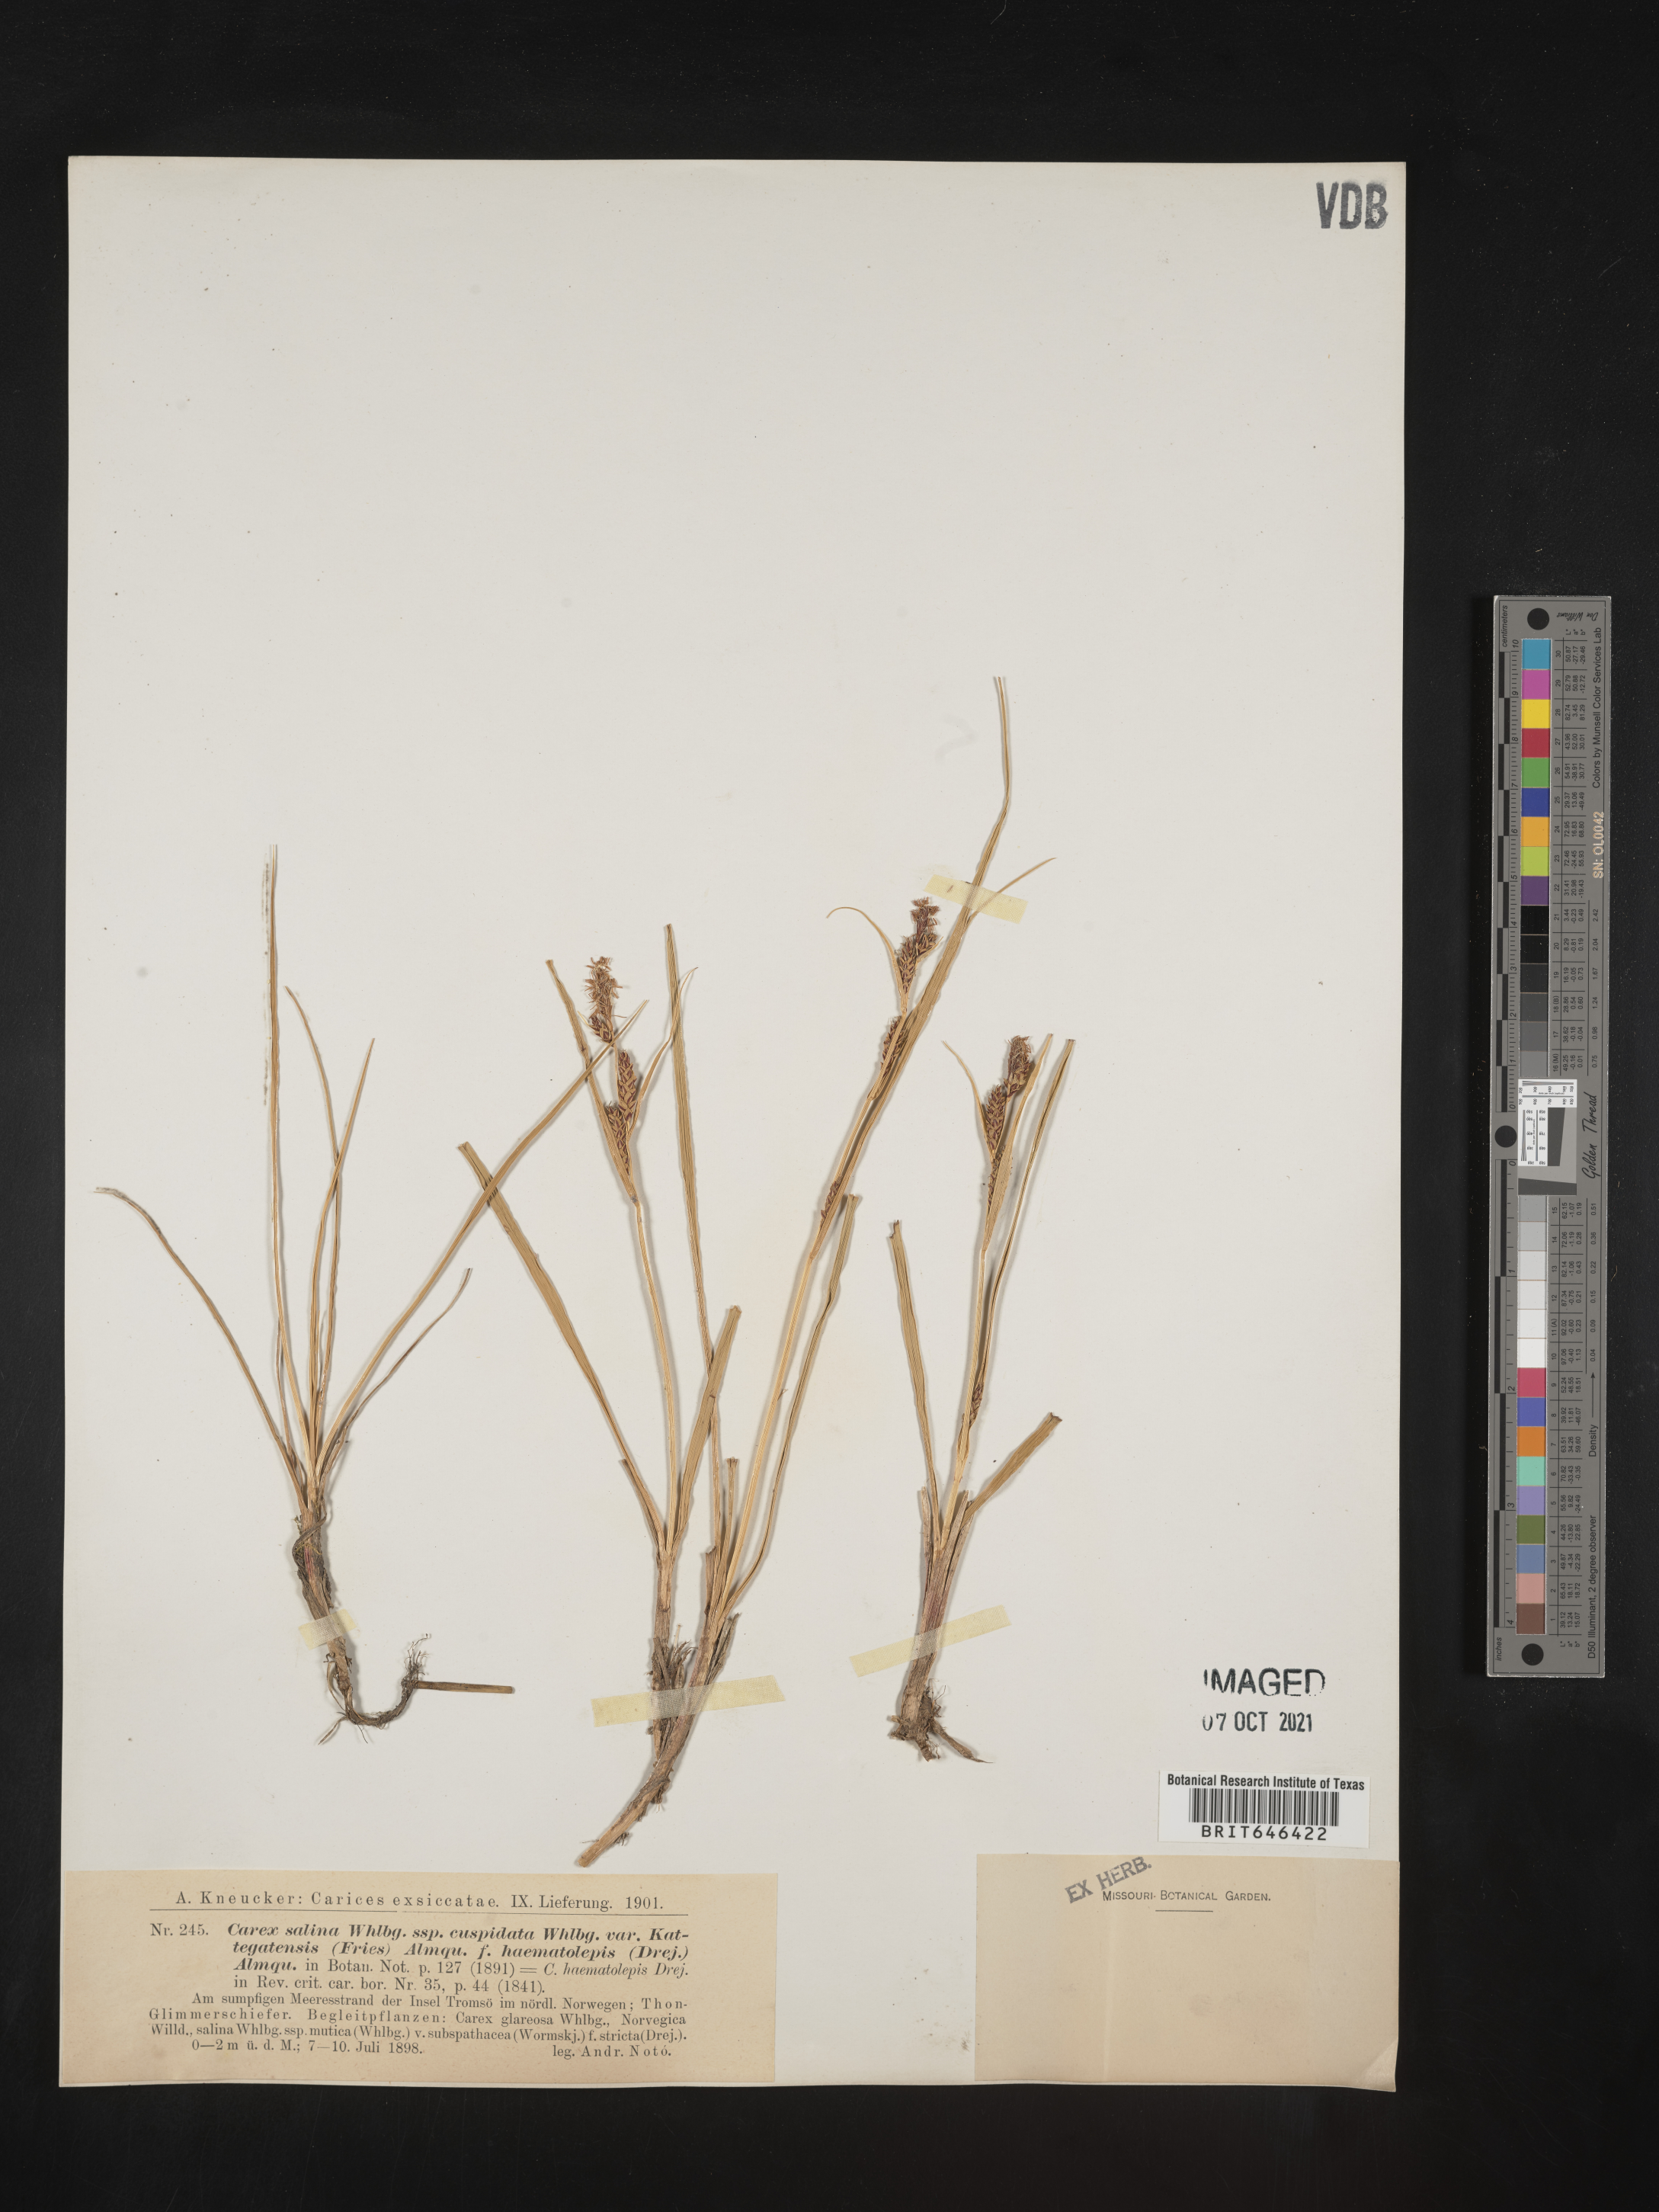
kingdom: Plantae
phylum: Tracheophyta
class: Liliopsida
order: Poales
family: Cyperaceae
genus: Carex
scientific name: Carex salina
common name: Saltmarsh sedge
